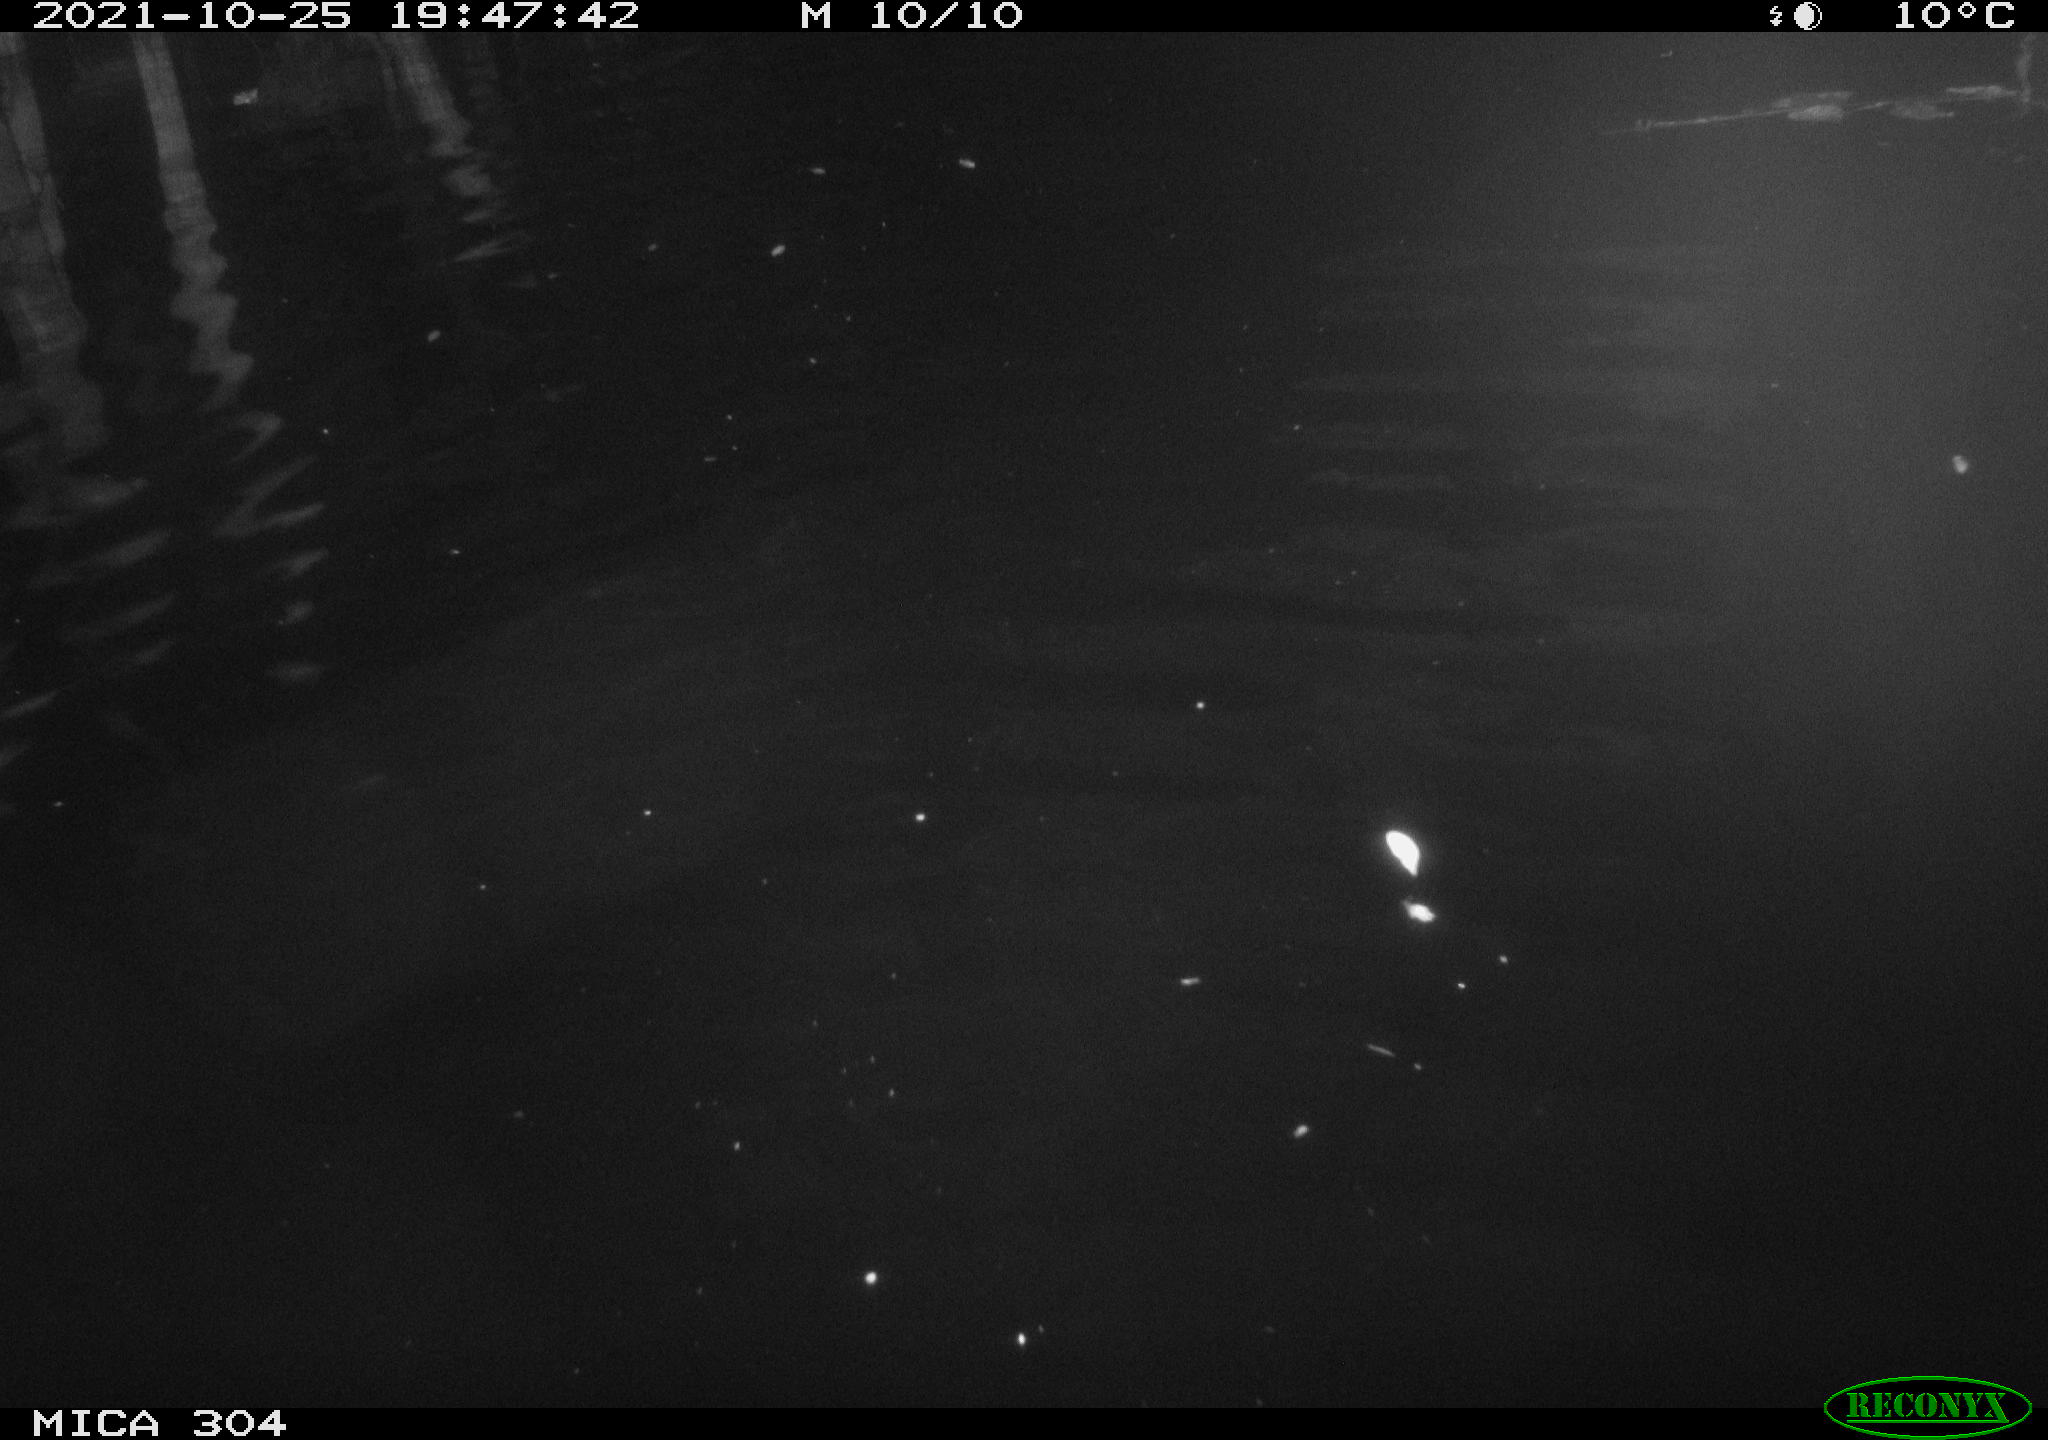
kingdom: Animalia
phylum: Chordata
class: Mammalia
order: Rodentia
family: Cricetidae
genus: Ondatra
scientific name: Ondatra zibethicus
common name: Muskrat
